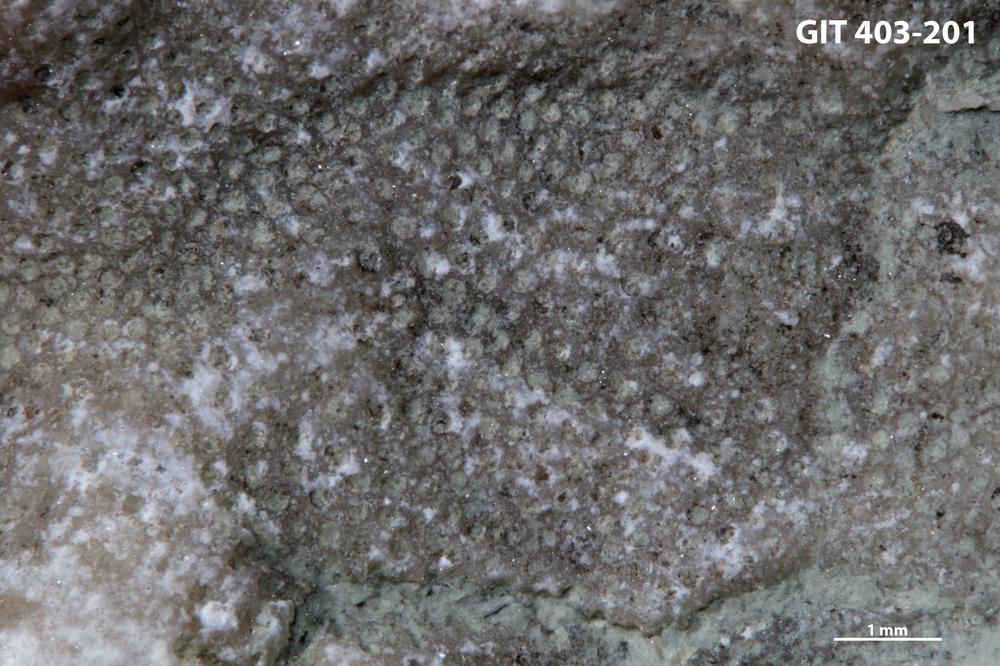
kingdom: Animalia
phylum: Bryozoa
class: Stenolaemata
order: Cystoporida
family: Fistuliporidae
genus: Fistulipora
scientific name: Fistulipora
